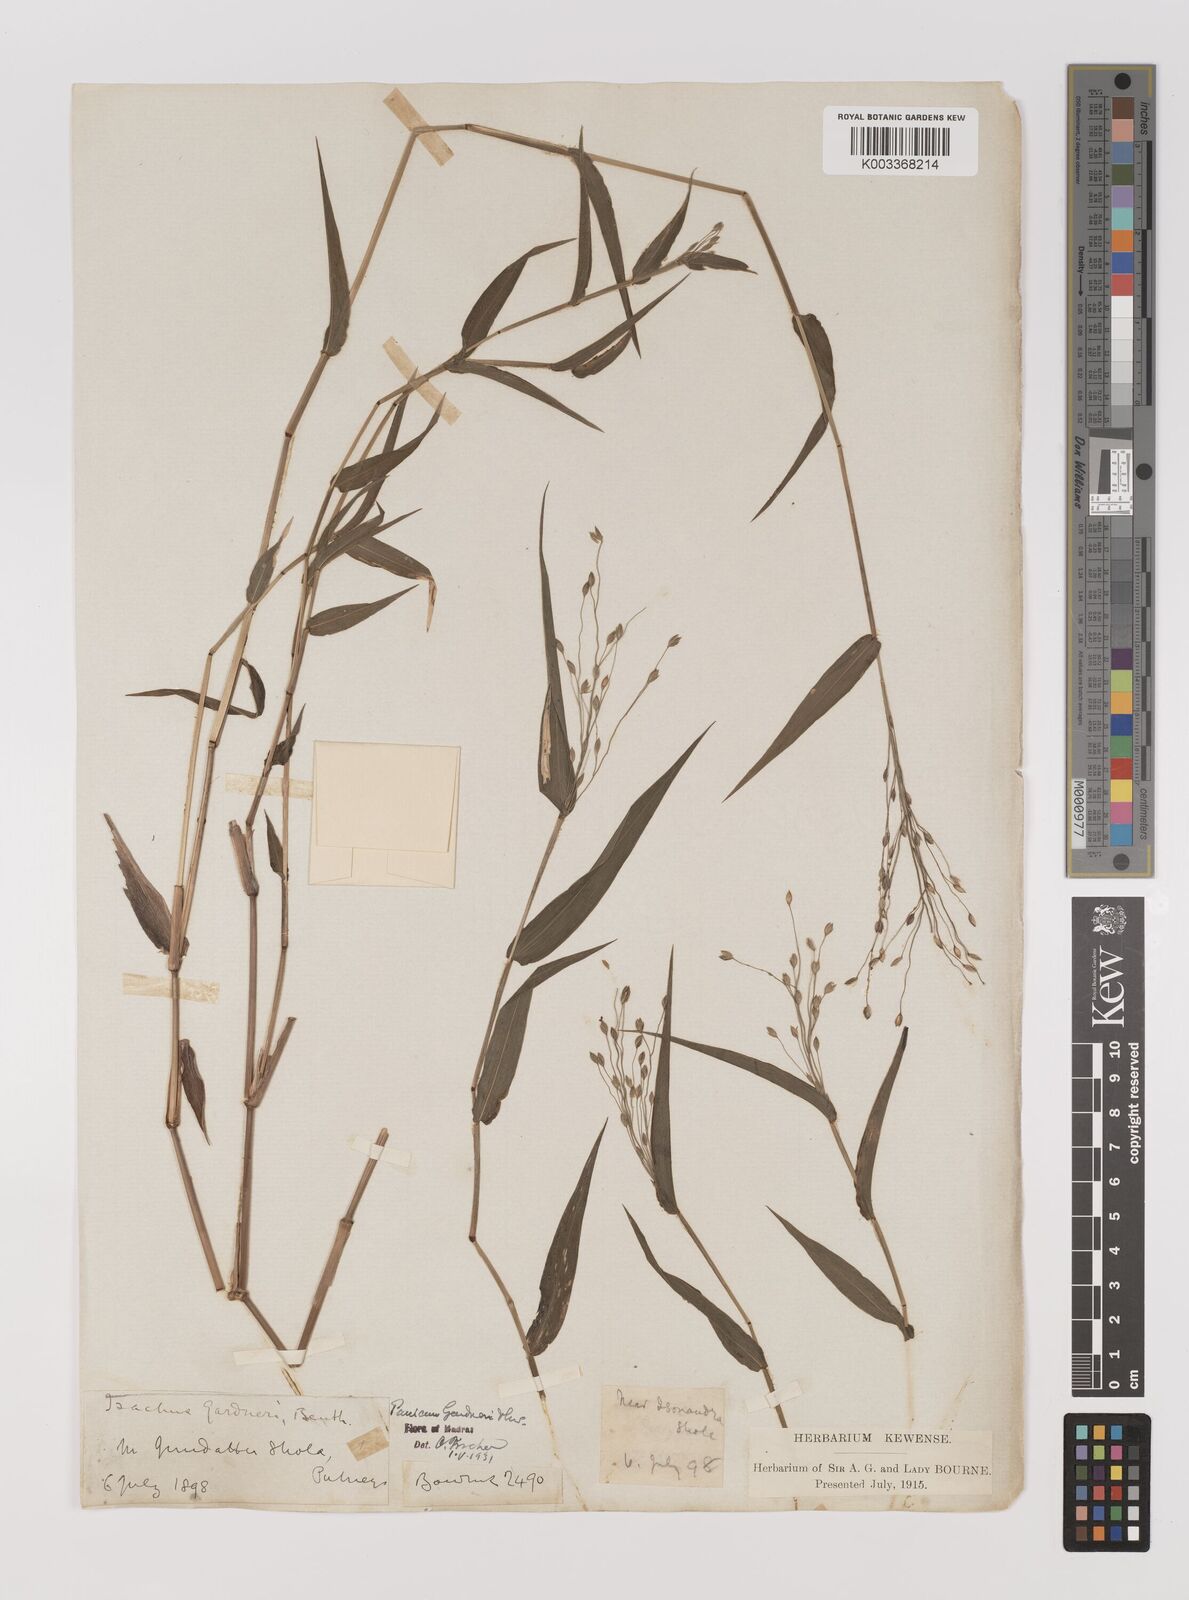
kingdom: Plantae
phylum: Tracheophyta
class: Liliopsida
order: Poales
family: Poaceae
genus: Panicum
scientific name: Panicum gardneri
